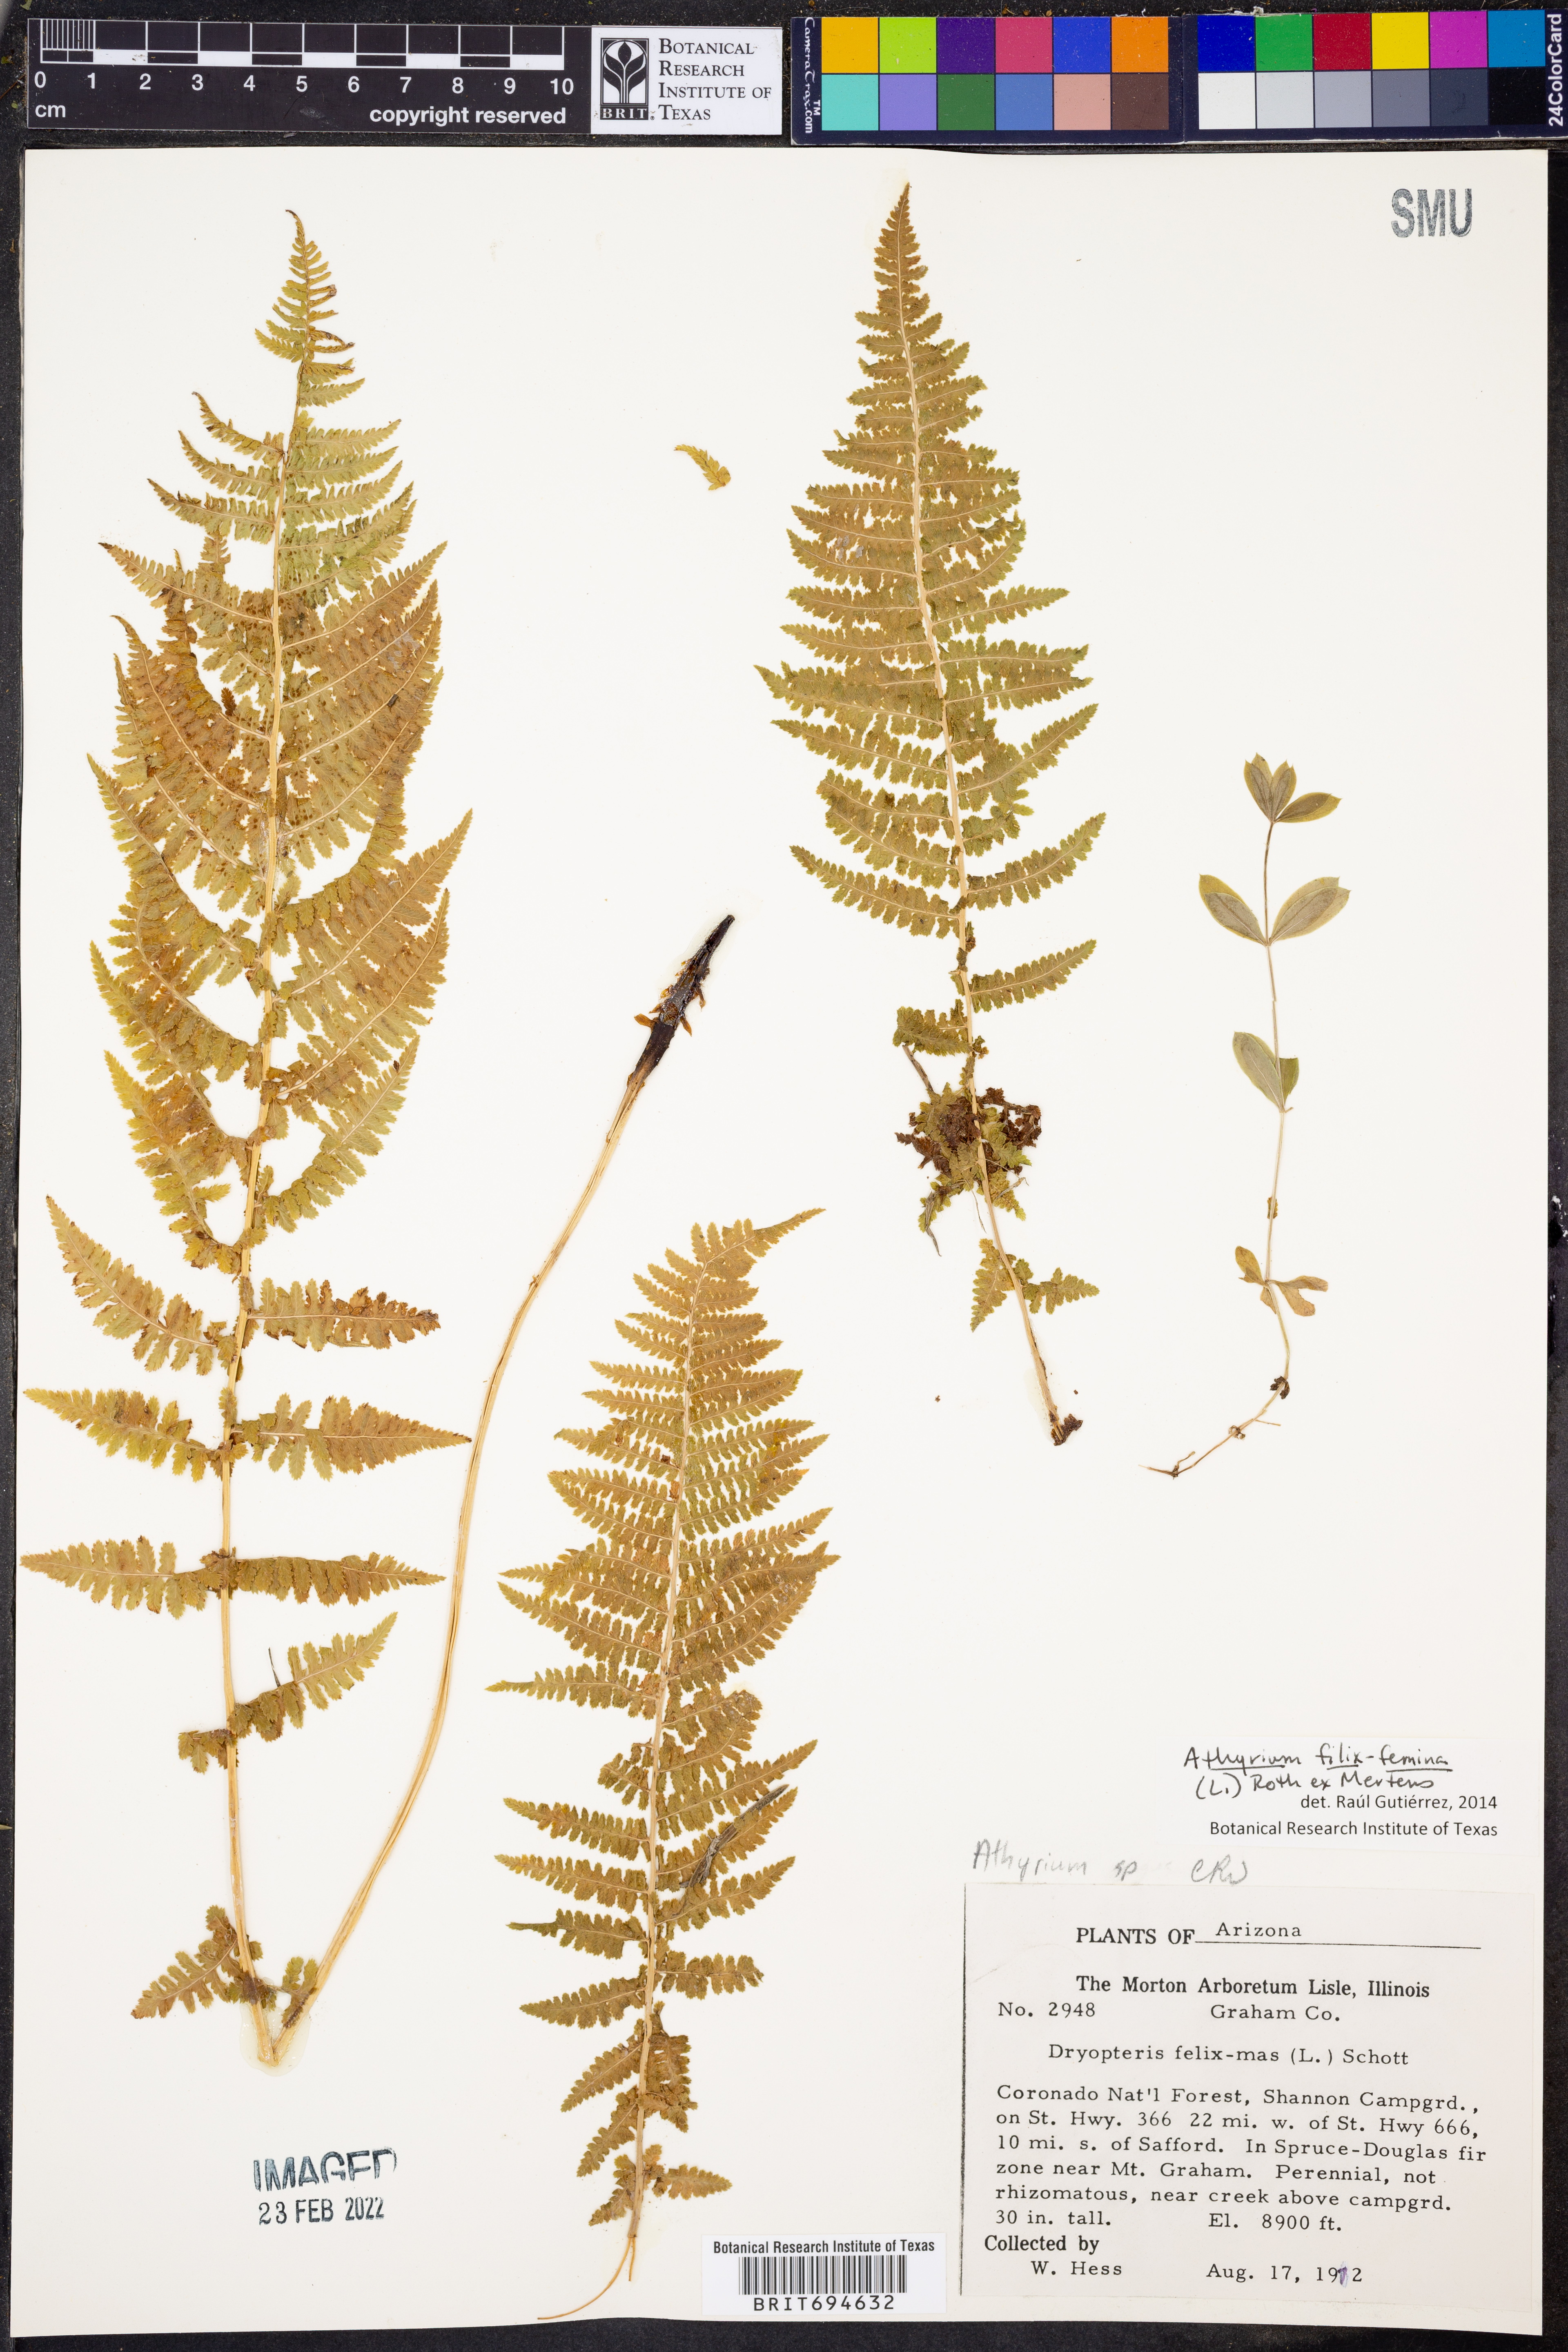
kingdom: Plantae
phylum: Tracheophyta
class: Polypodiopsida
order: Polypodiales
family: Athyriaceae
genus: Athyrium
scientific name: Athyrium filix-femina
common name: Lady fern
